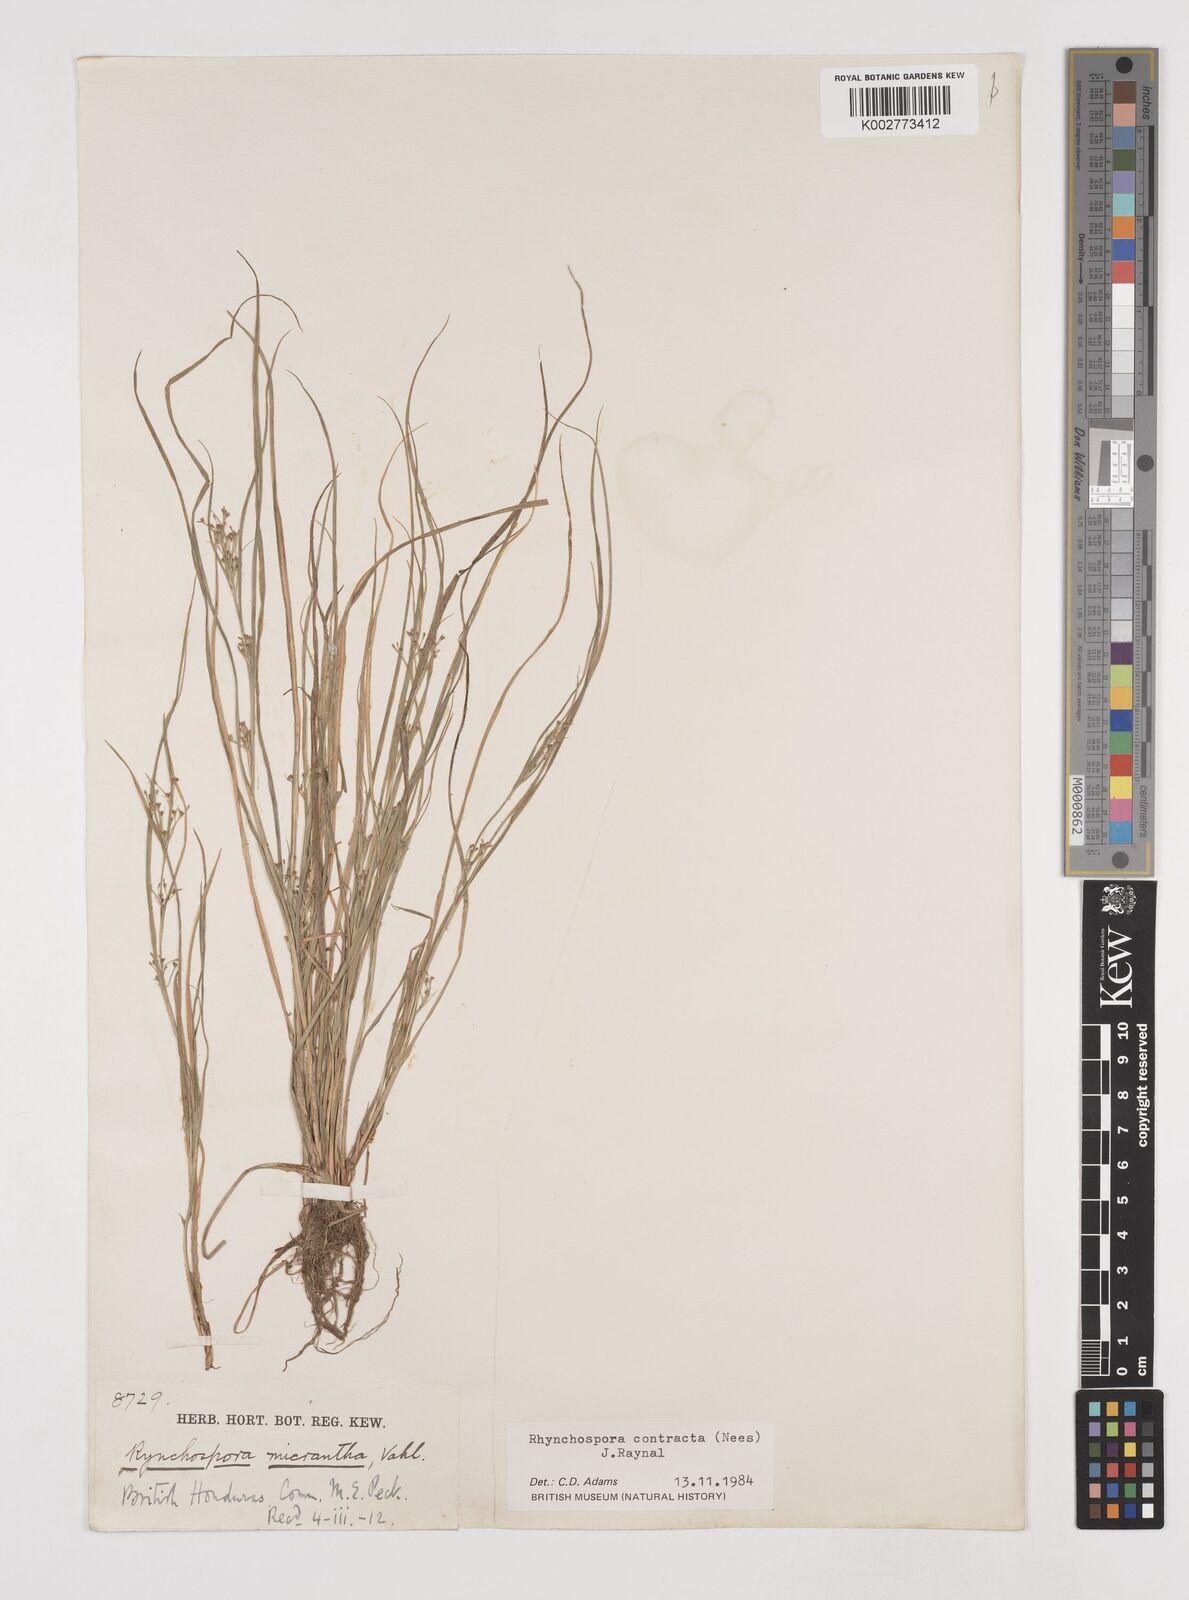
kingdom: Plantae
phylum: Tracheophyta
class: Liliopsida
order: Poales
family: Cyperaceae
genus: Rhynchospora
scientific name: Rhynchospora contracta
